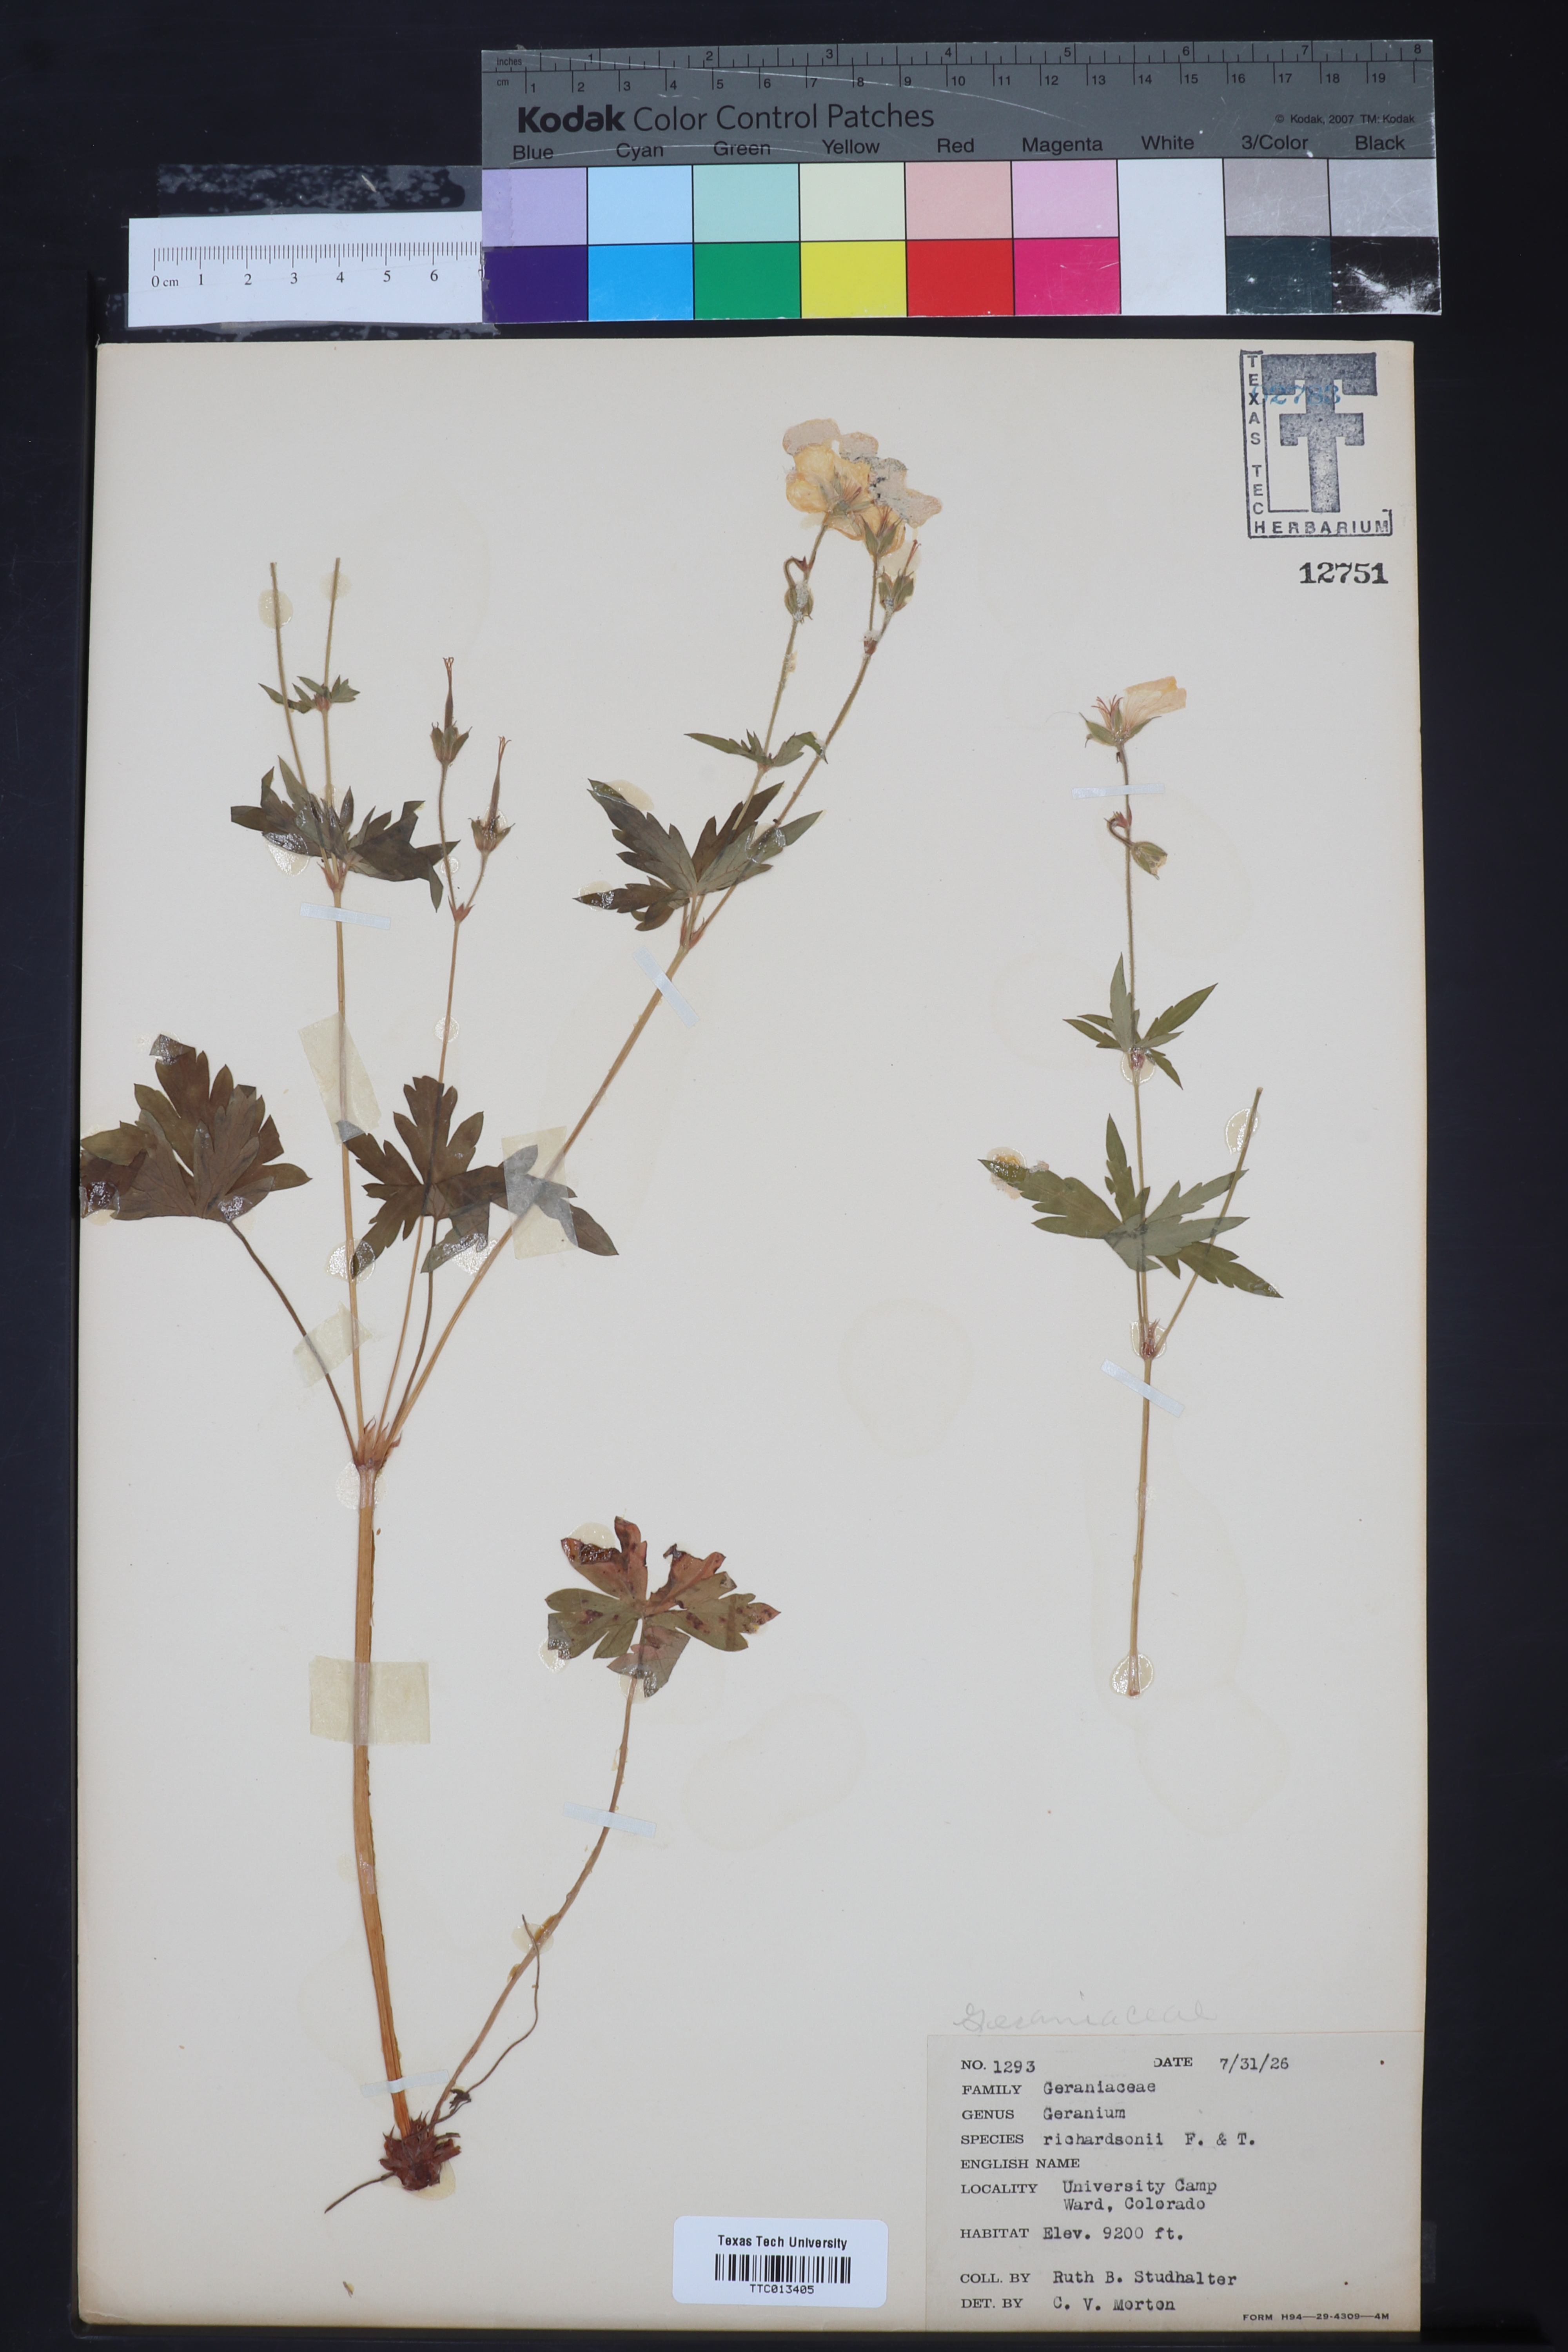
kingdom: Plantae
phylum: Tracheophyta
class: Magnoliopsida
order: Geraniales
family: Geraniaceae
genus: Geranium
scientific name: Geranium richardsonii
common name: Richardson's crane's-bill
